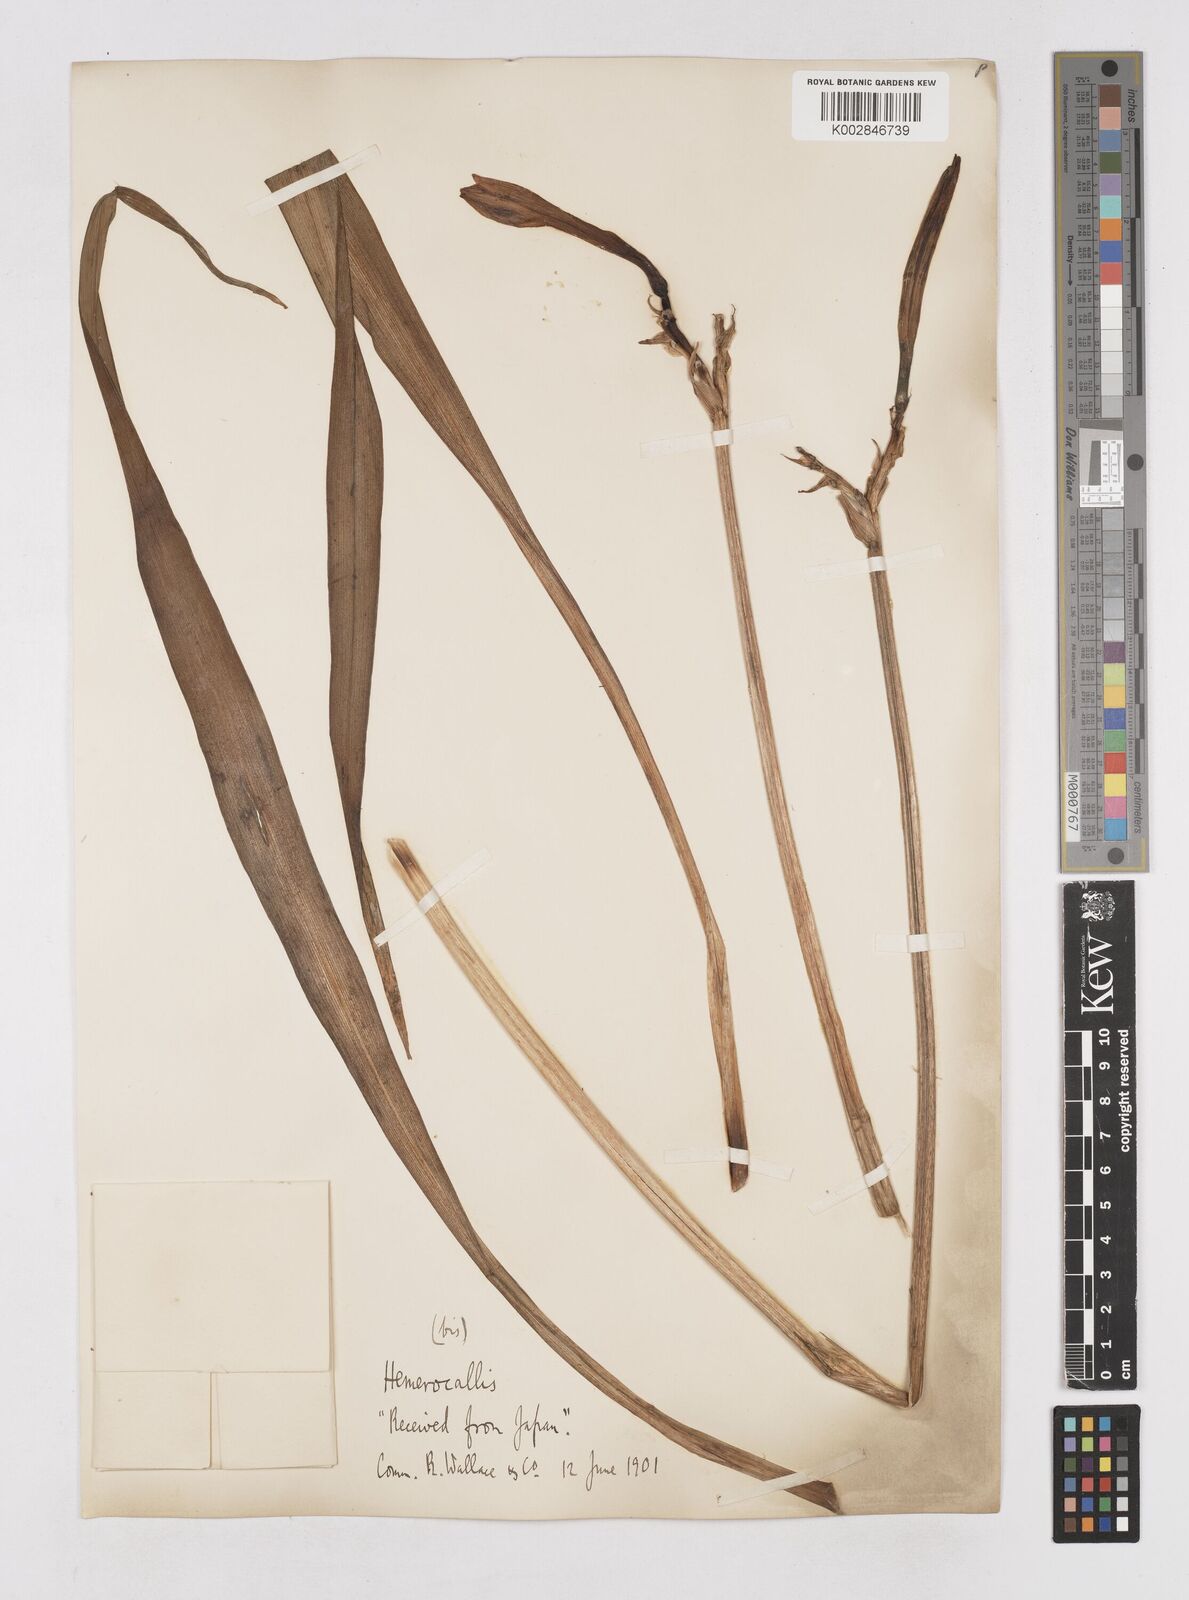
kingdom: Plantae
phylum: Tracheophyta
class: Liliopsida
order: Asparagales
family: Asphodelaceae
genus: Hemerocallis
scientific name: Hemerocallis
